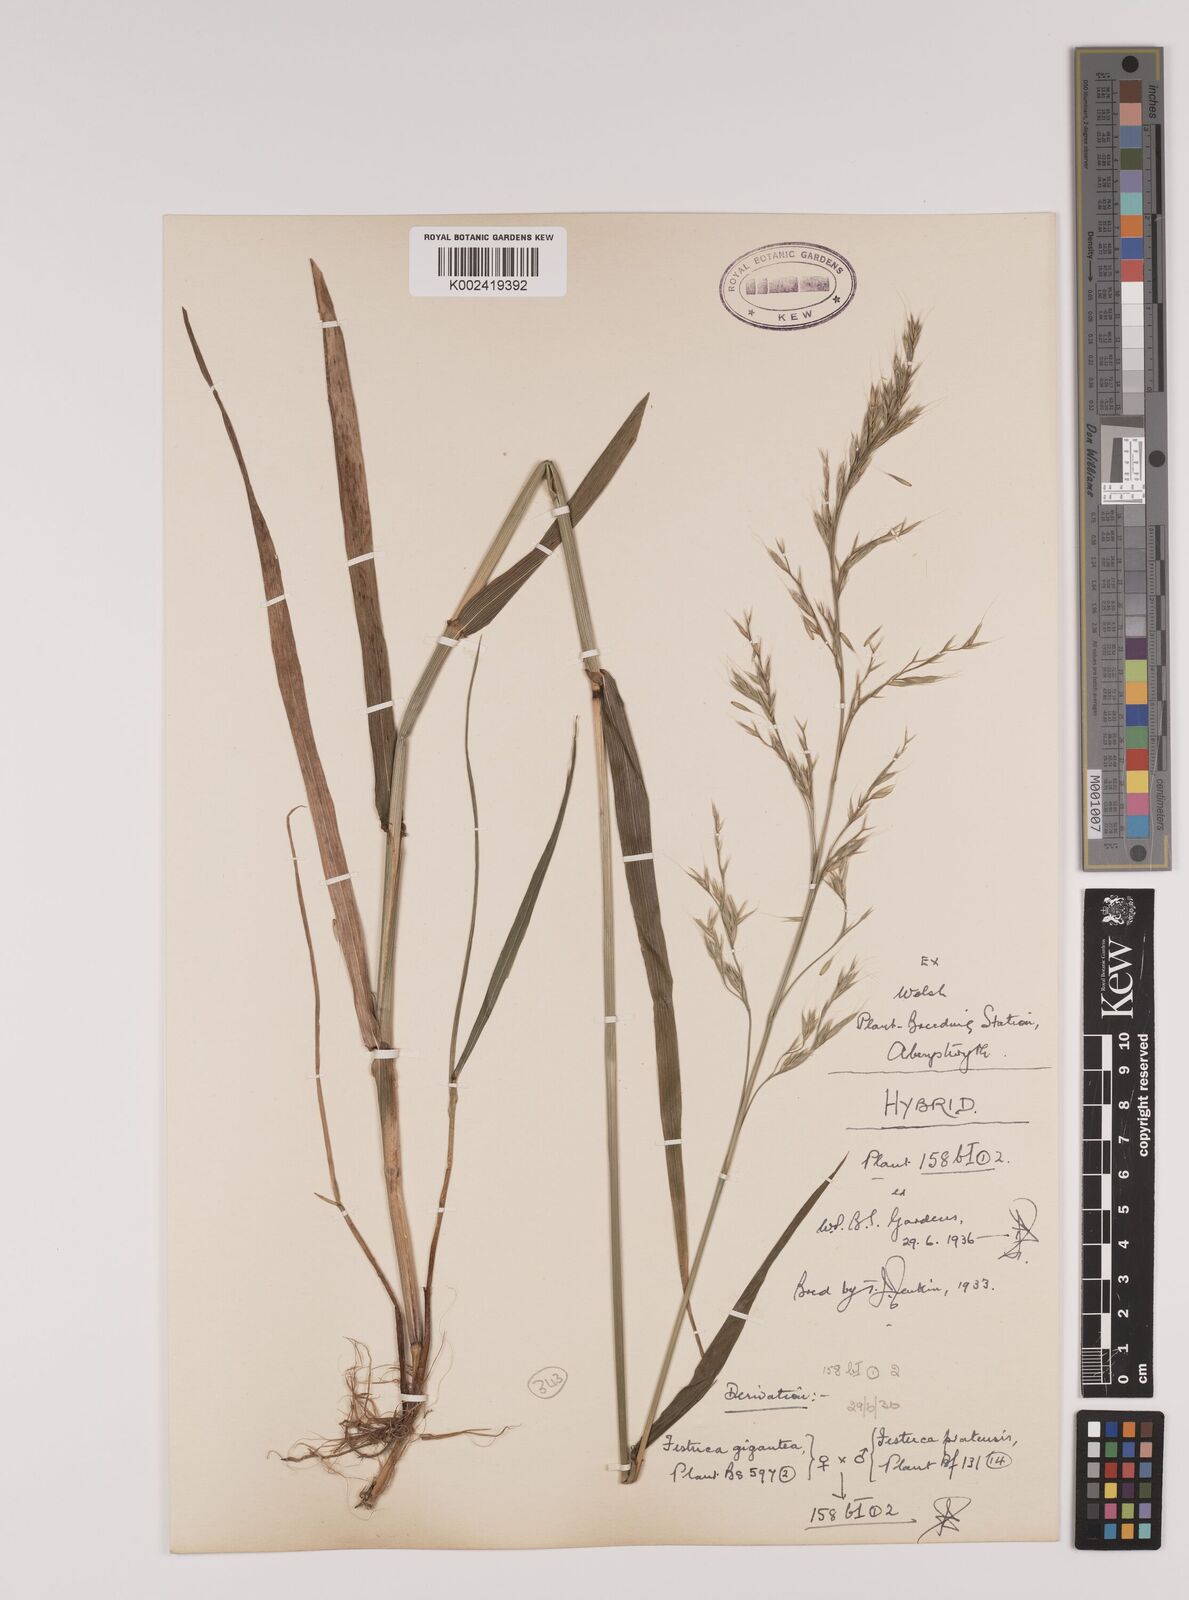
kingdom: Plantae
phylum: Tracheophyta
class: Liliopsida
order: Poales
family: Poaceae
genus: Lolium
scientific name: Lolium giganteum
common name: Giant fescue
